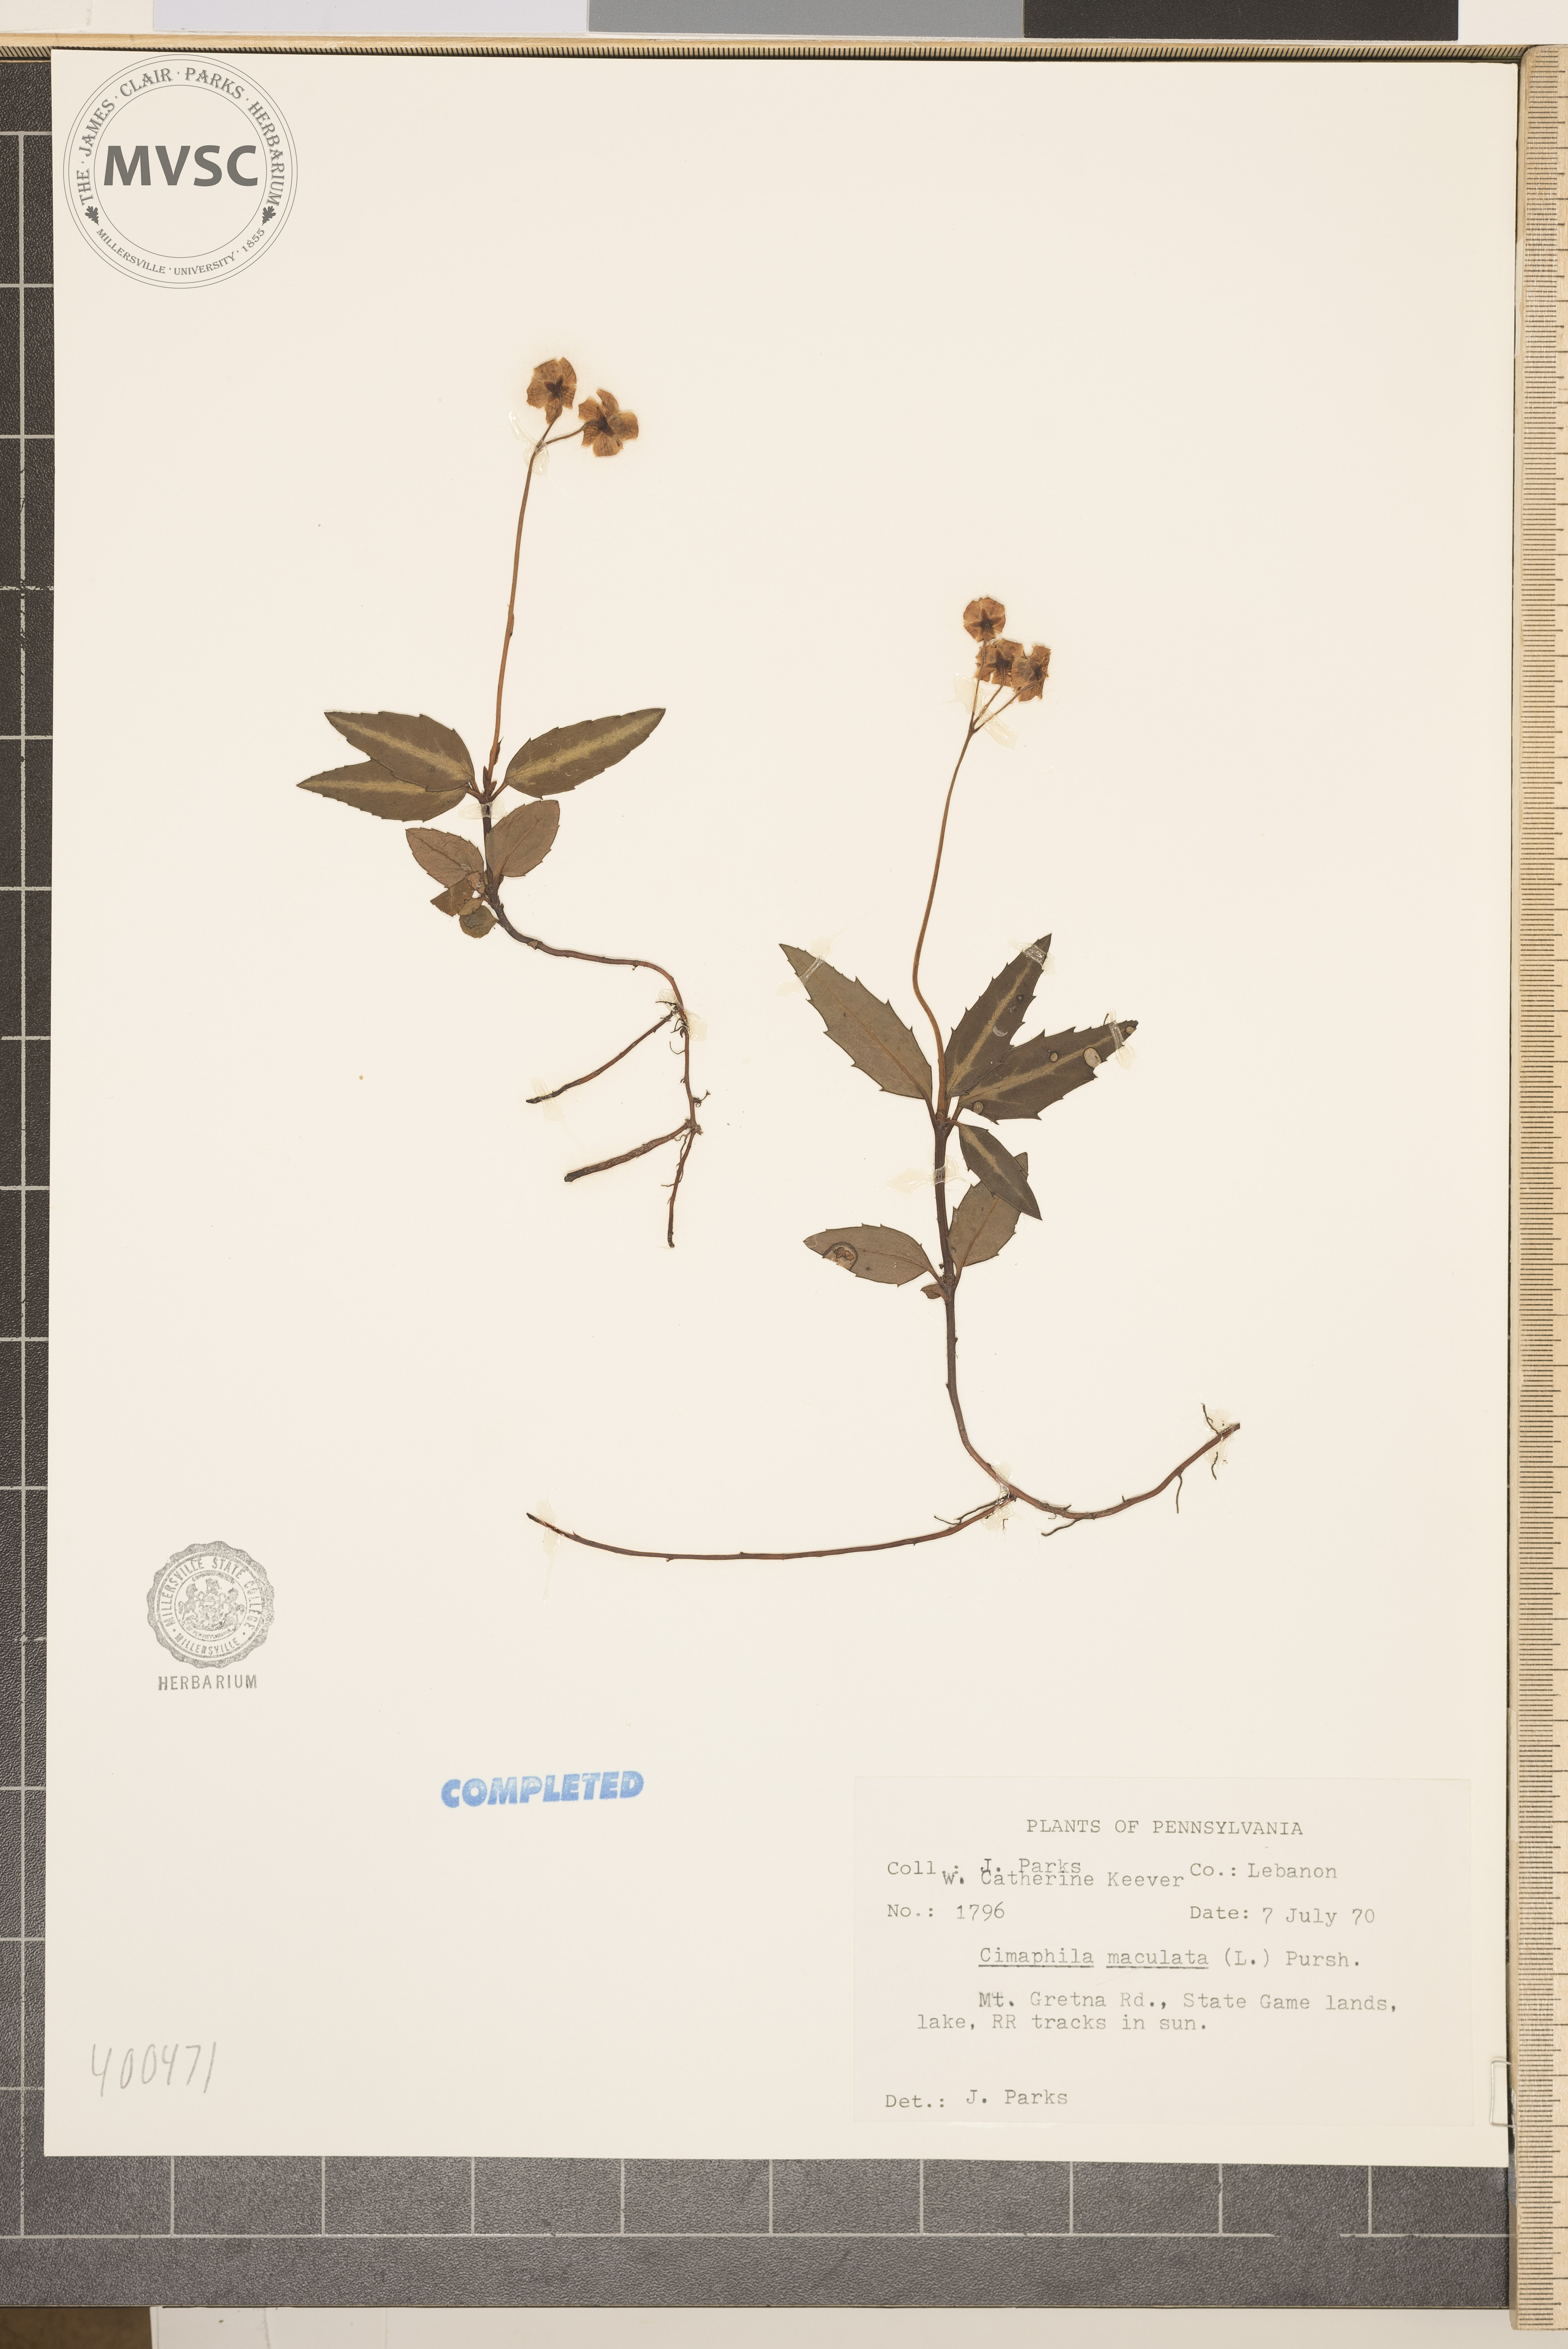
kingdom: Plantae
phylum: Tracheophyta
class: Magnoliopsida
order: Ericales
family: Ericaceae
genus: Chimaphila
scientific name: Chimaphila maculata
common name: Spotted pipsissewa
